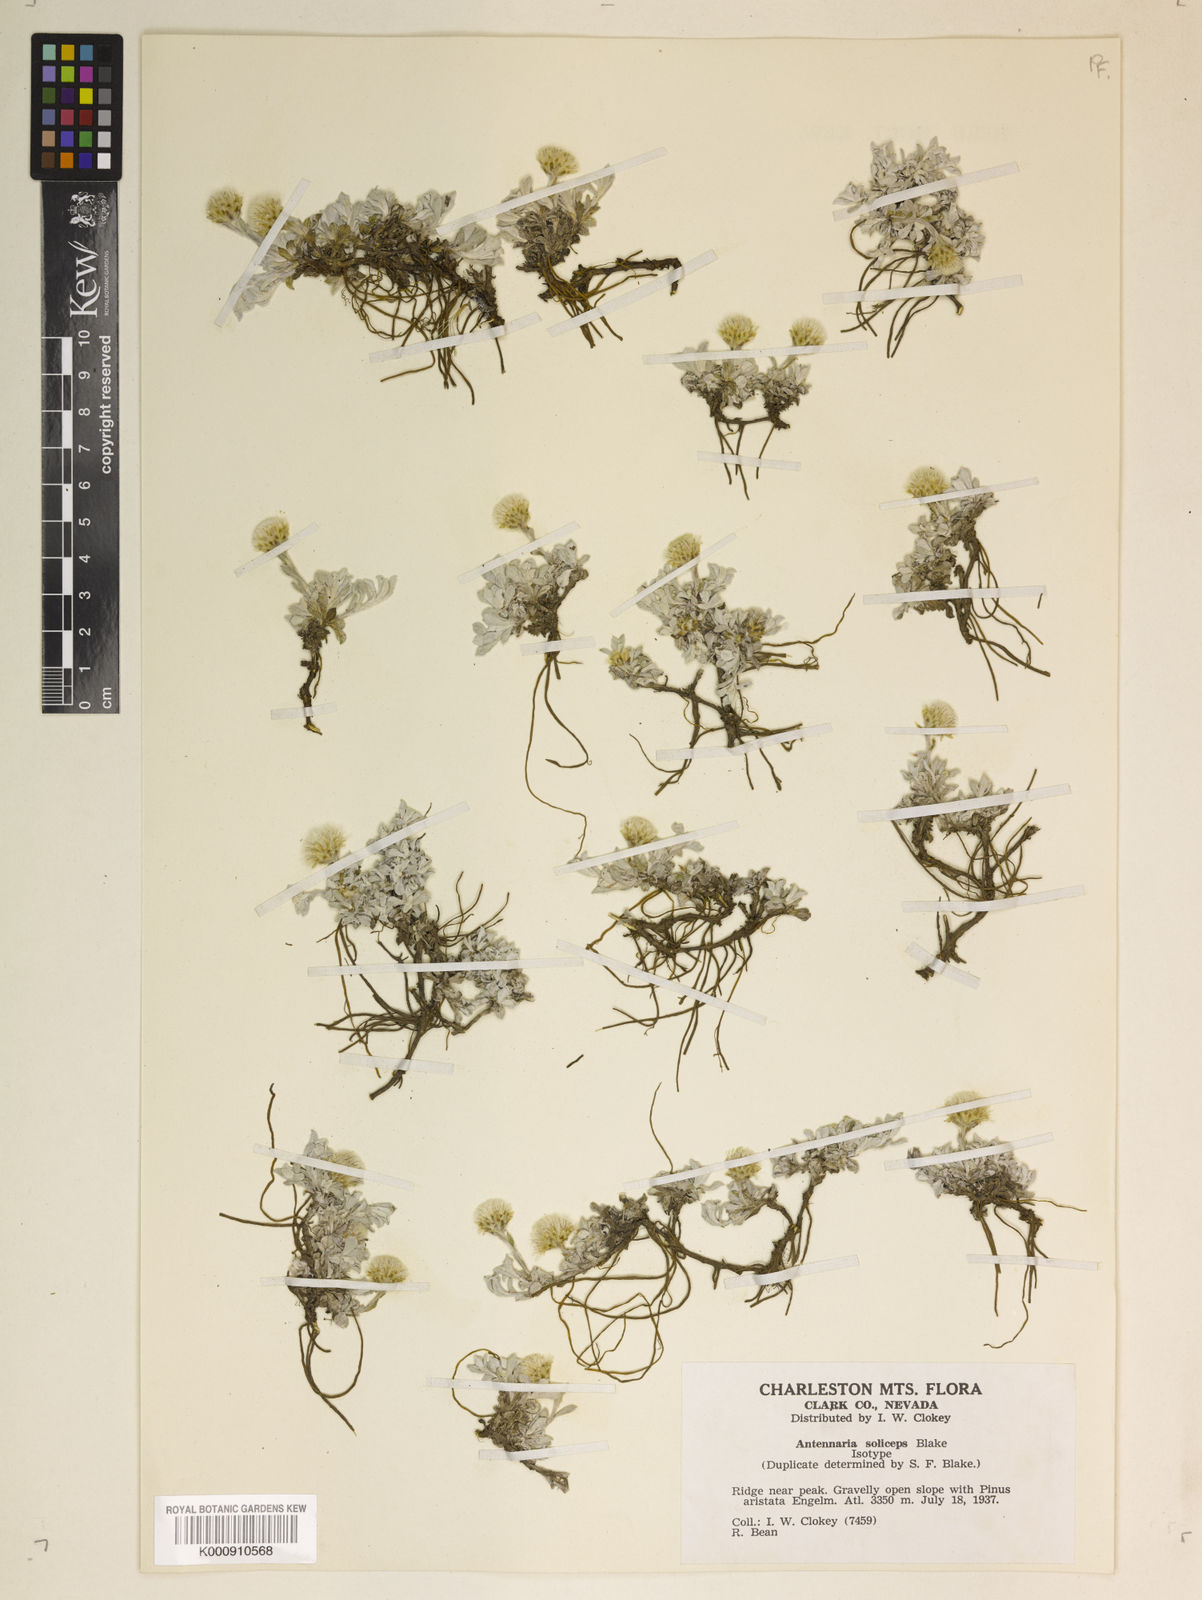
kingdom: Plantae
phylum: Tracheophyta
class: Magnoliopsida
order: Asterales
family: Asteraceae
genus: Antennaria
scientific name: Antennaria soliceps
